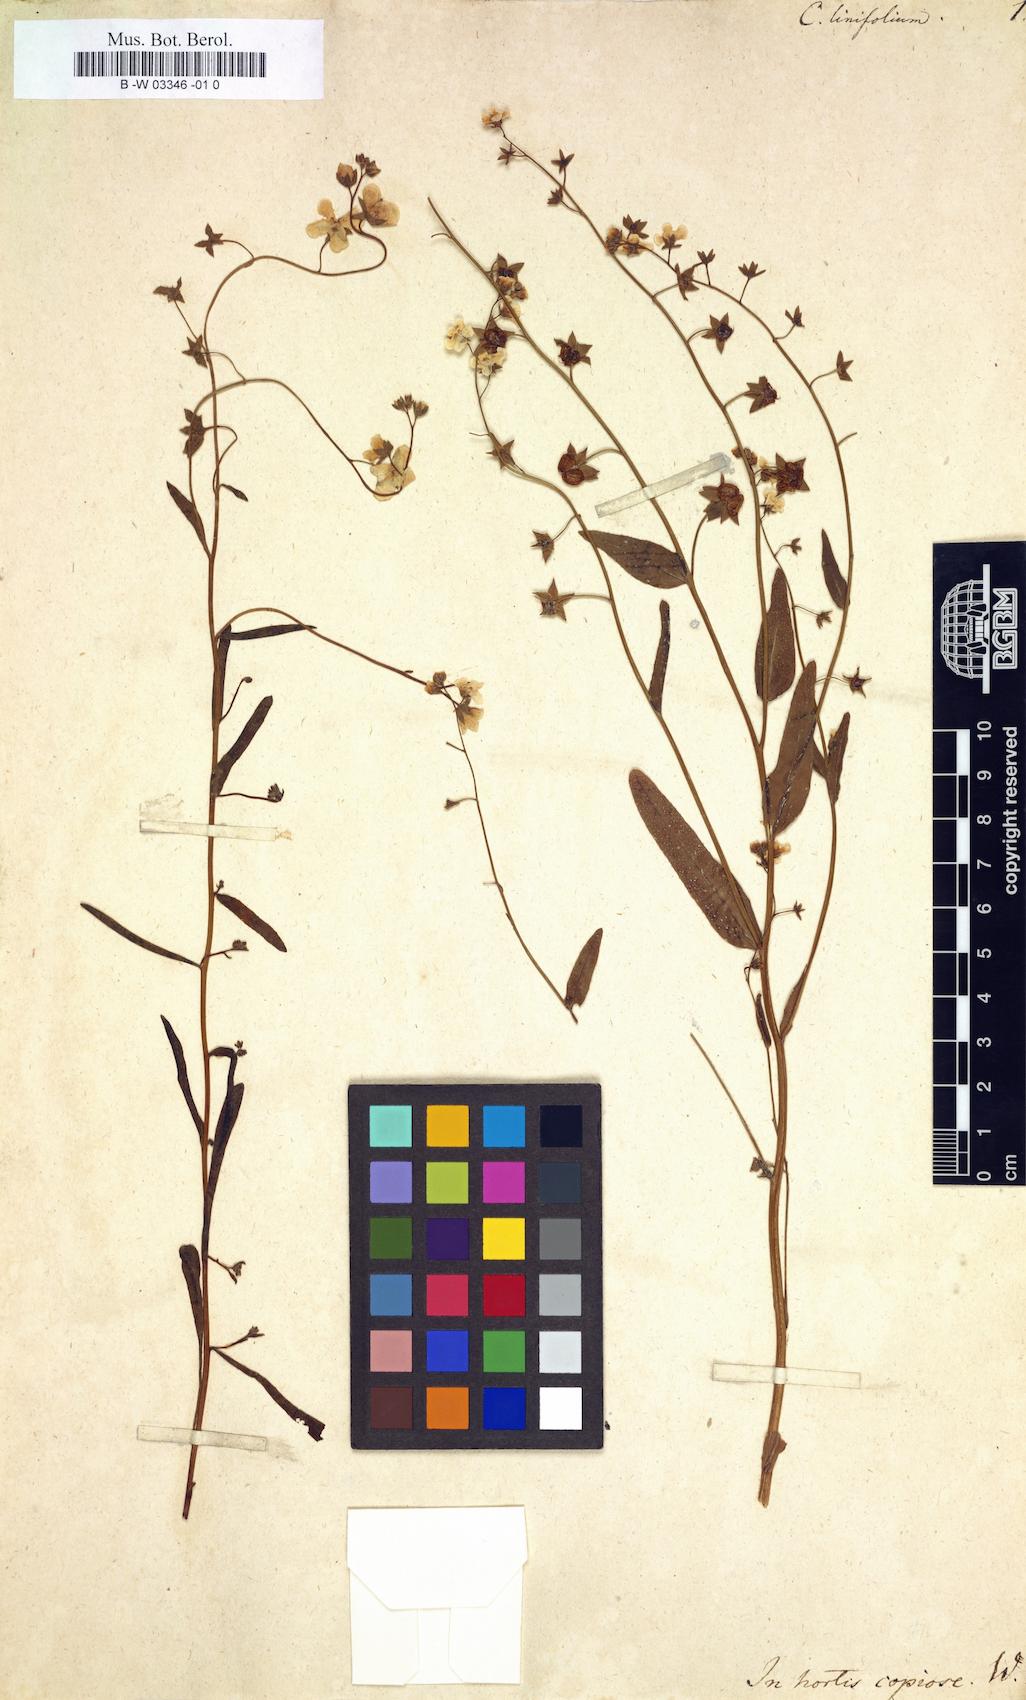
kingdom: Plantae
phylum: Tracheophyta
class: Magnoliopsida
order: Boraginales
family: Boraginaceae
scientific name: Boraginaceae
